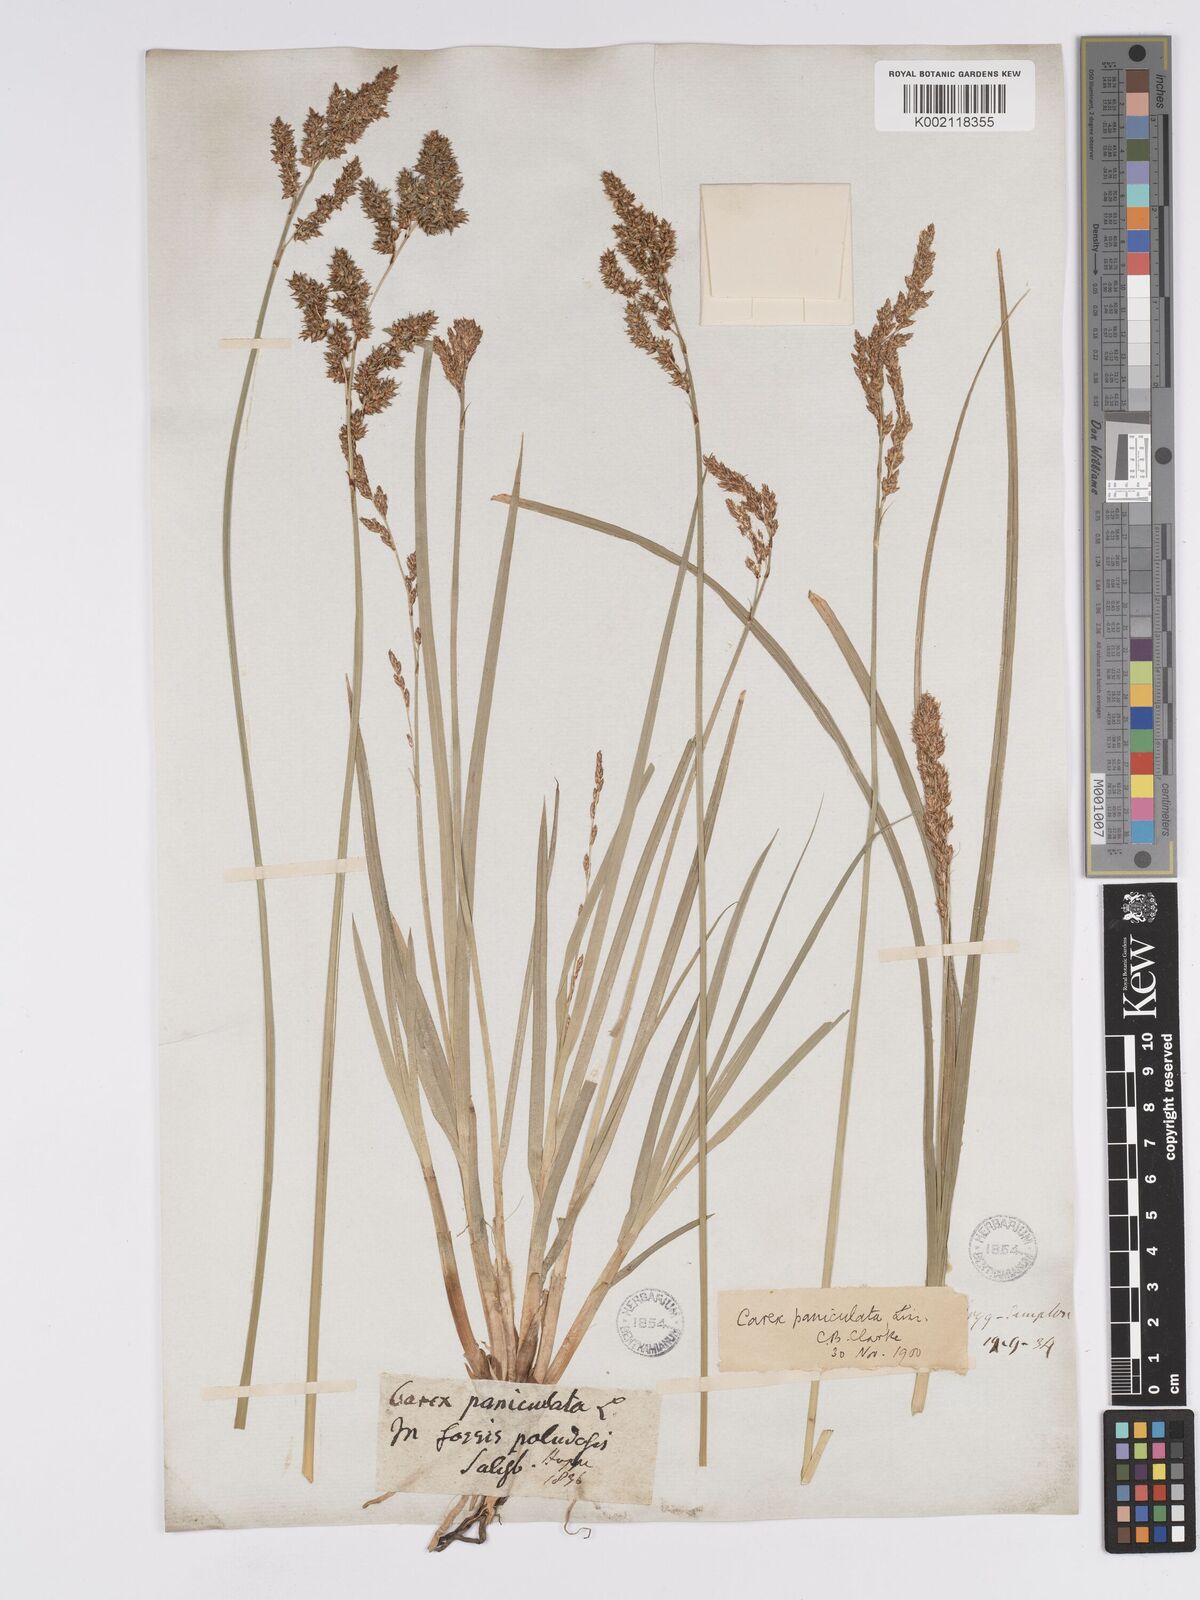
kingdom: Plantae
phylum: Tracheophyta
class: Liliopsida
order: Poales
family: Cyperaceae
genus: Carex
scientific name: Carex paniculata
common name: Greater tussock-sedge
